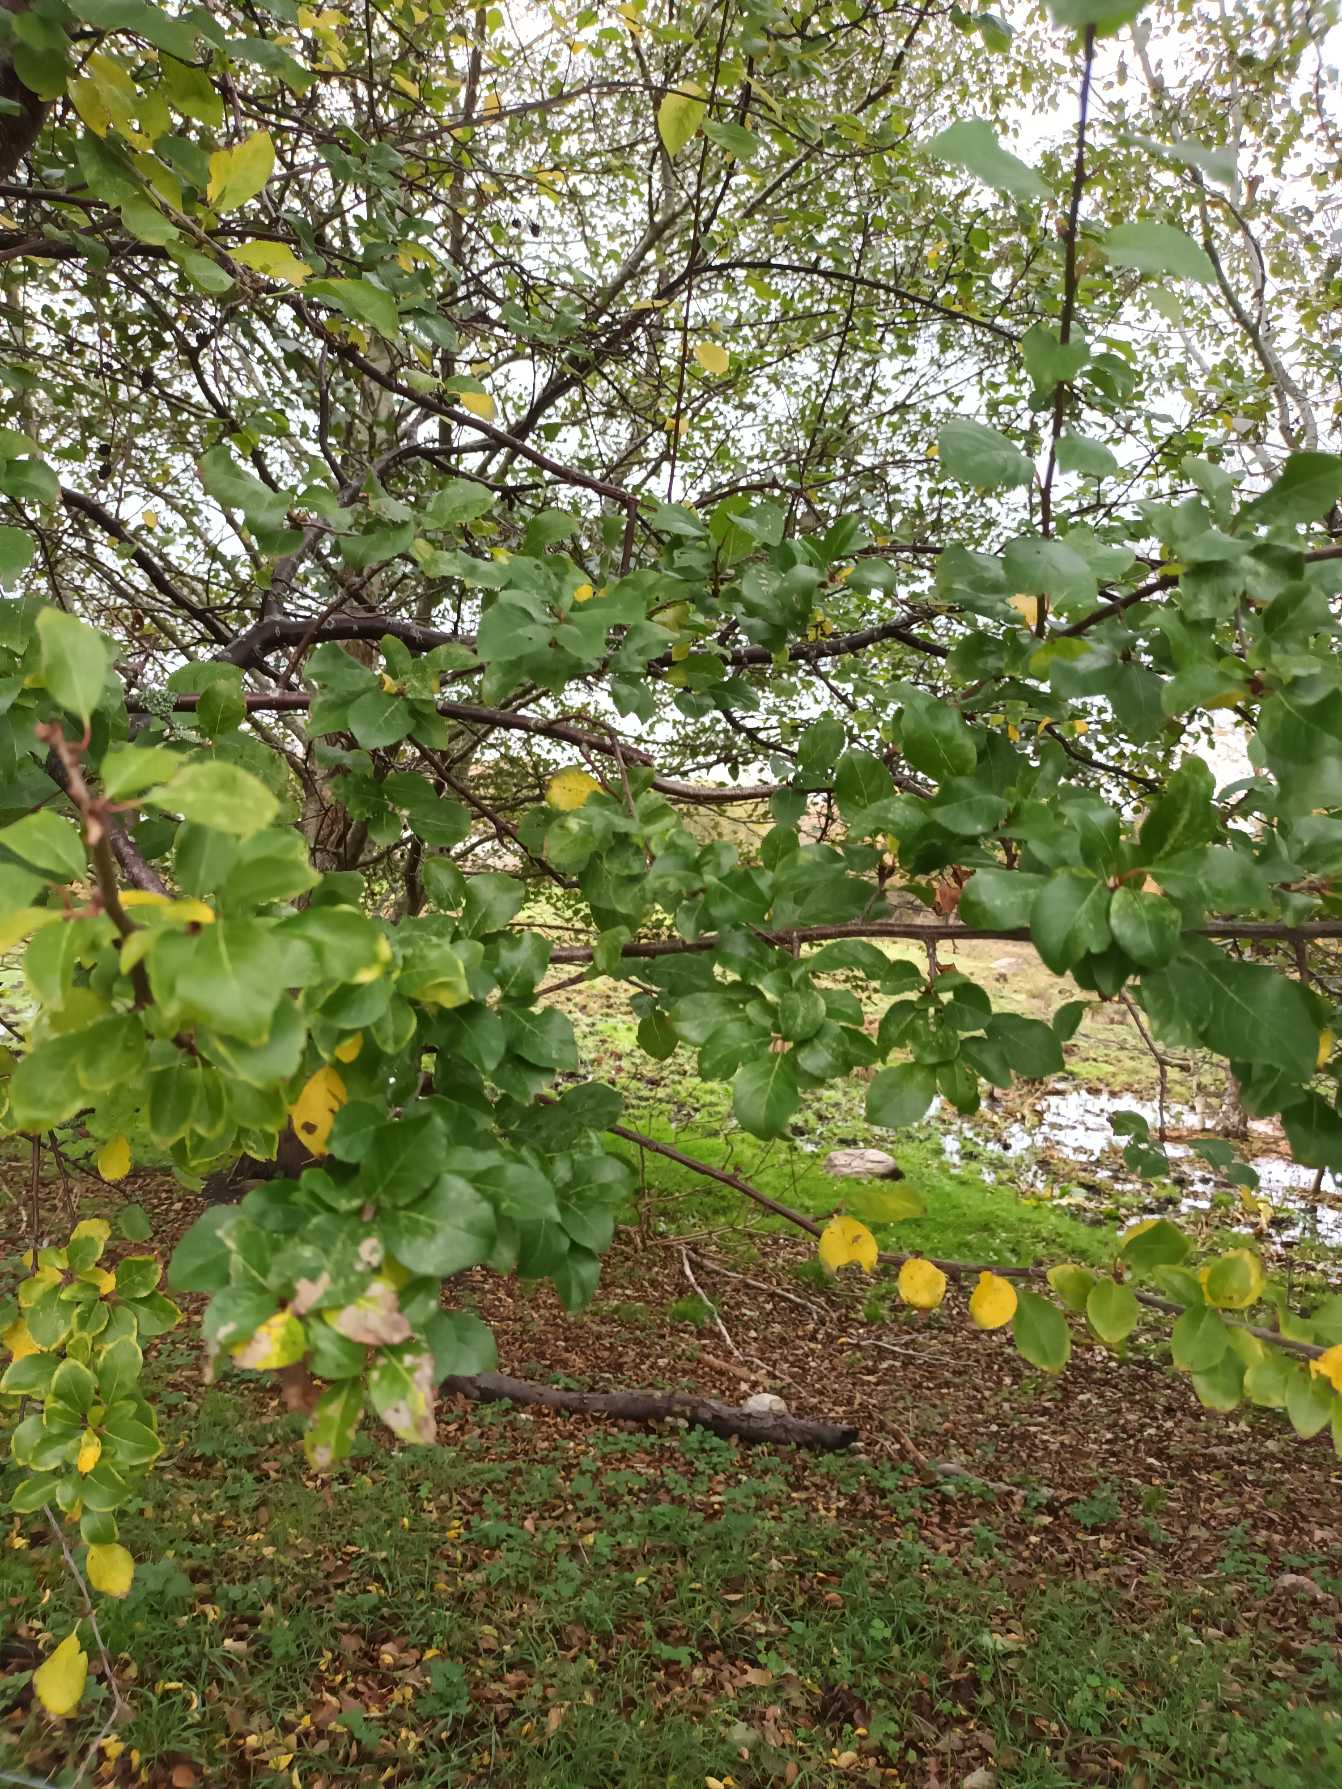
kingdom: Plantae
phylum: Tracheophyta
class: Magnoliopsida
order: Rosales
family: Rosaceae
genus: Prunus
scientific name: Prunus cerasifera
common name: Mirabel
